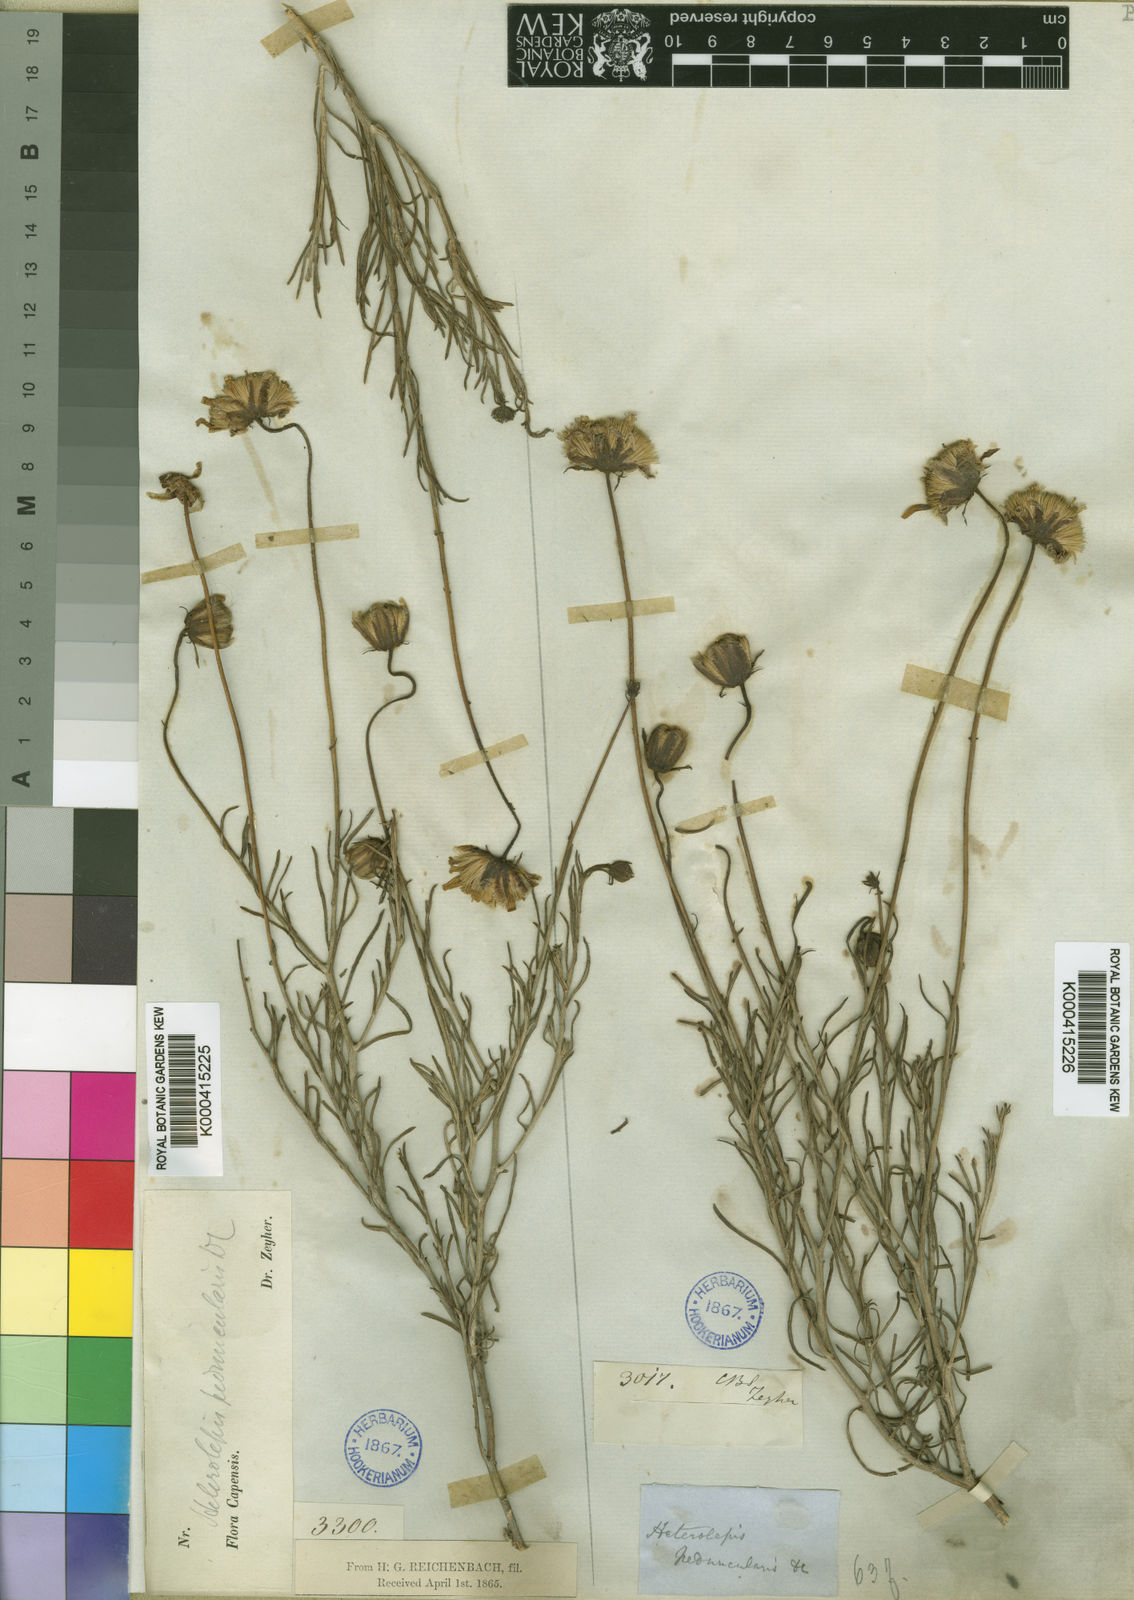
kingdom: Plantae
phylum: Tracheophyta
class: Magnoliopsida
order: Asterales
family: Asteraceae
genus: Heterolepis
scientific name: Heterolepis peduncularis
